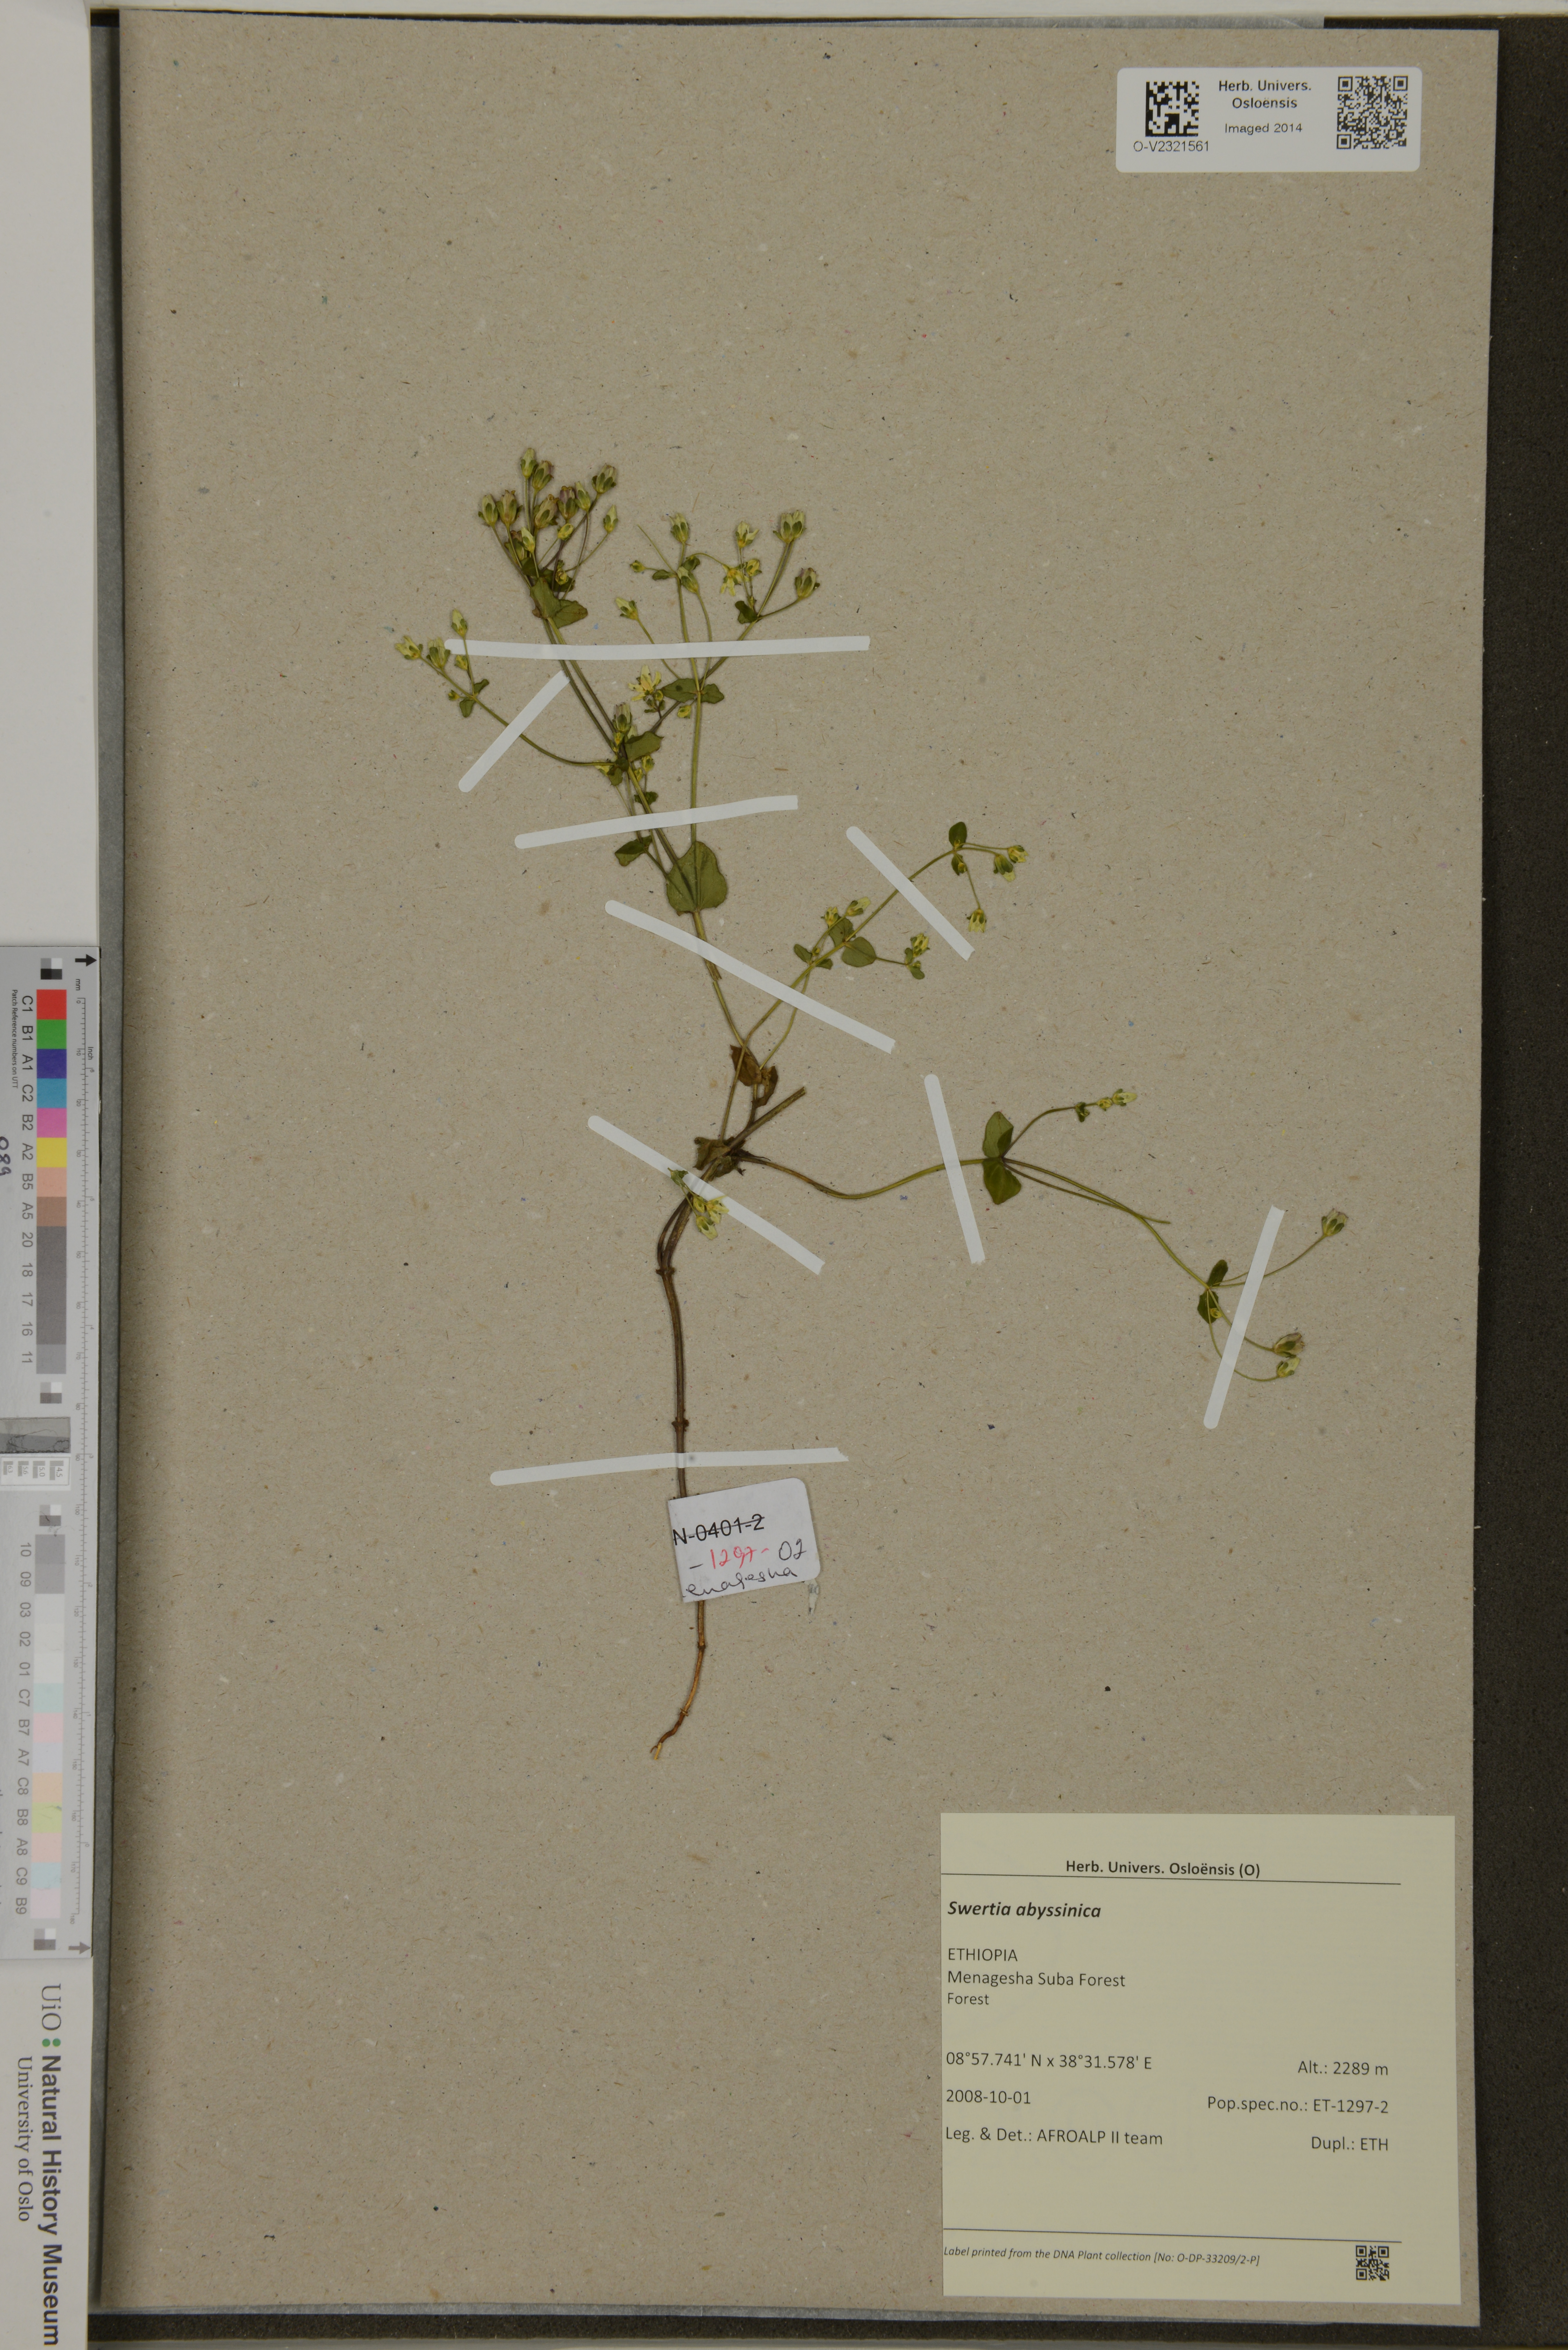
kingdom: Plantae
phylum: Tracheophyta
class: Magnoliopsida
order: Gentianales
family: Gentianaceae
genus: Swertia
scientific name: Swertia abyssinica
